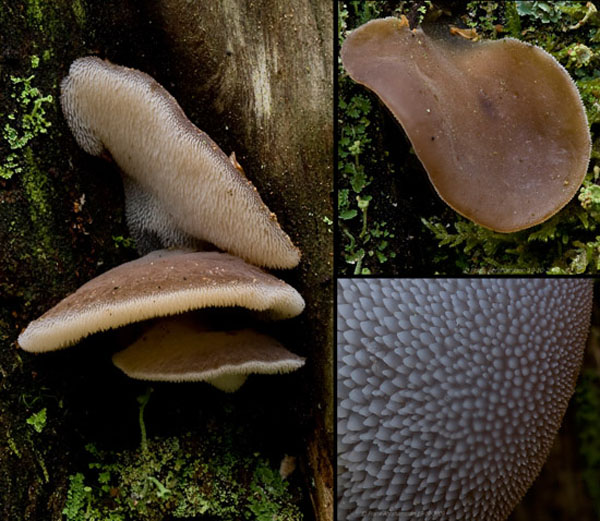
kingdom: Fungi
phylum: Basidiomycota
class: Agaricomycetes
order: Auriculariales
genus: Pseudohydnum
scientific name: Pseudohydnum gelatinosum
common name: bævretand
